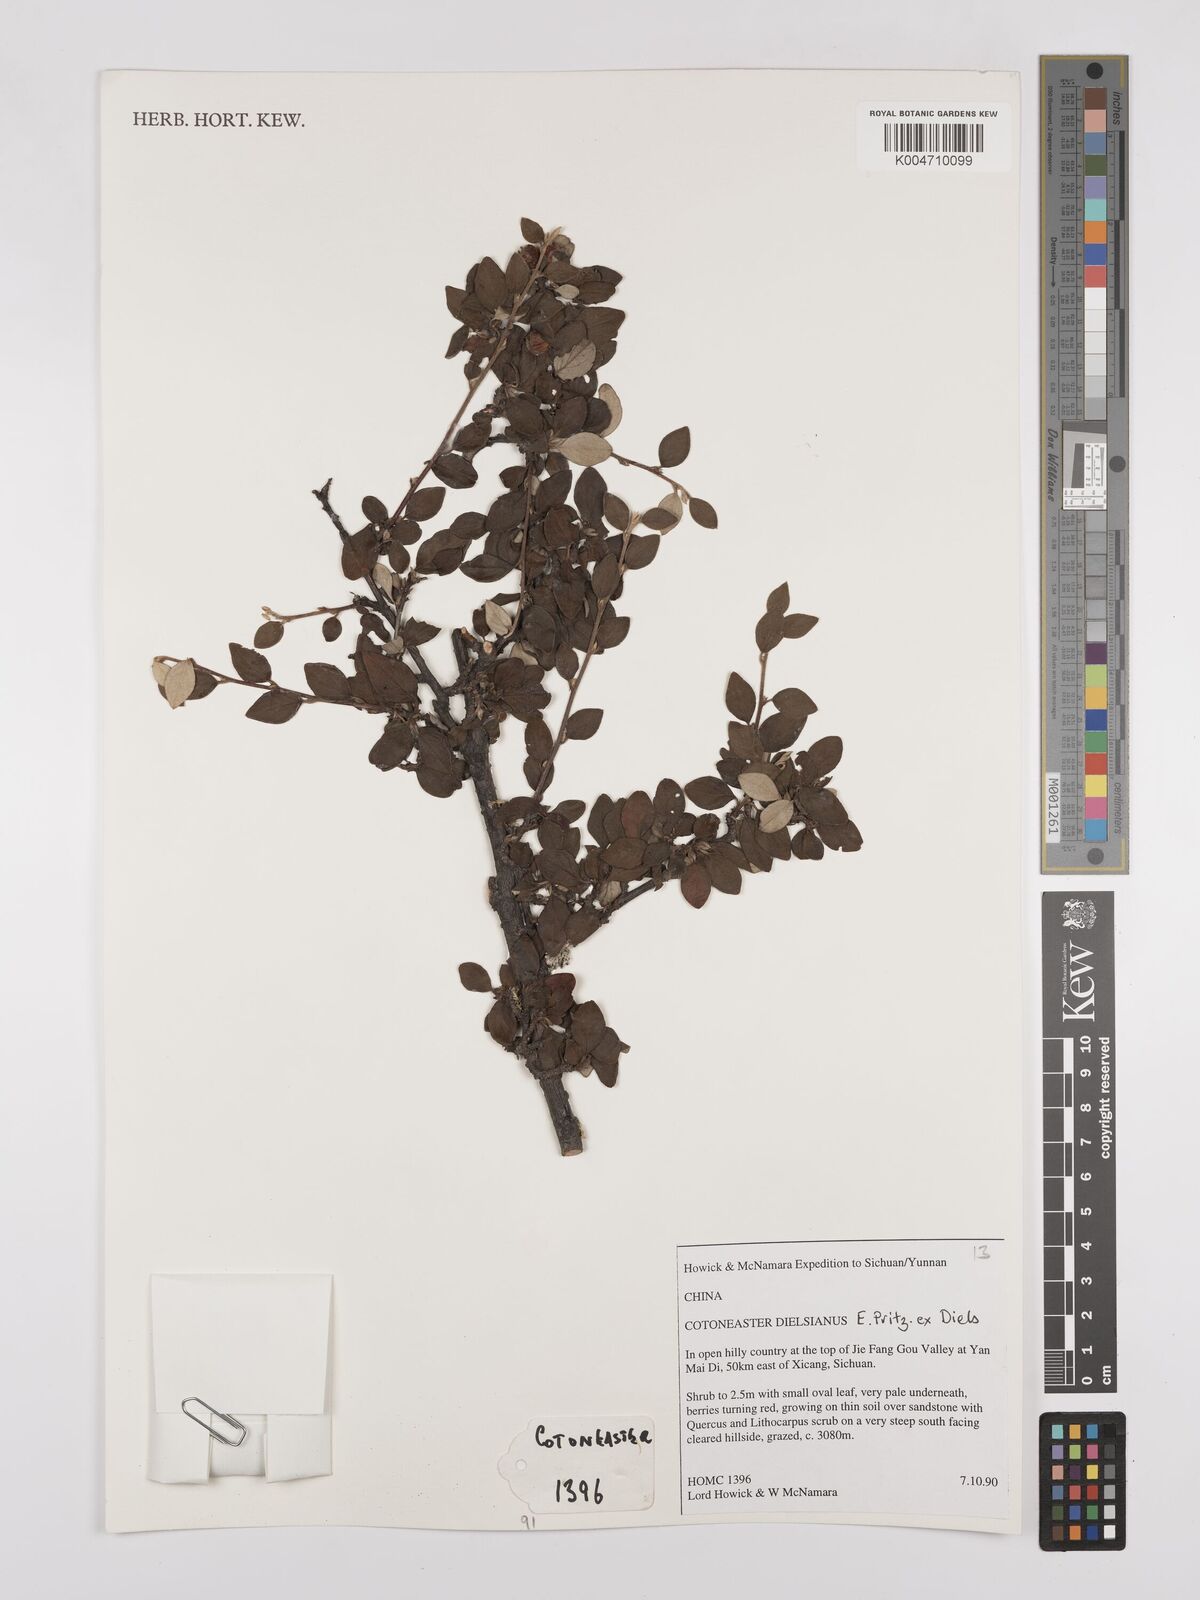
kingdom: Plantae
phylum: Tracheophyta
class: Magnoliopsida
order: Rosales
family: Rosaceae
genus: Cotoneaster
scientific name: Cotoneaster dielsianus
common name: Diels's cotoneaster
